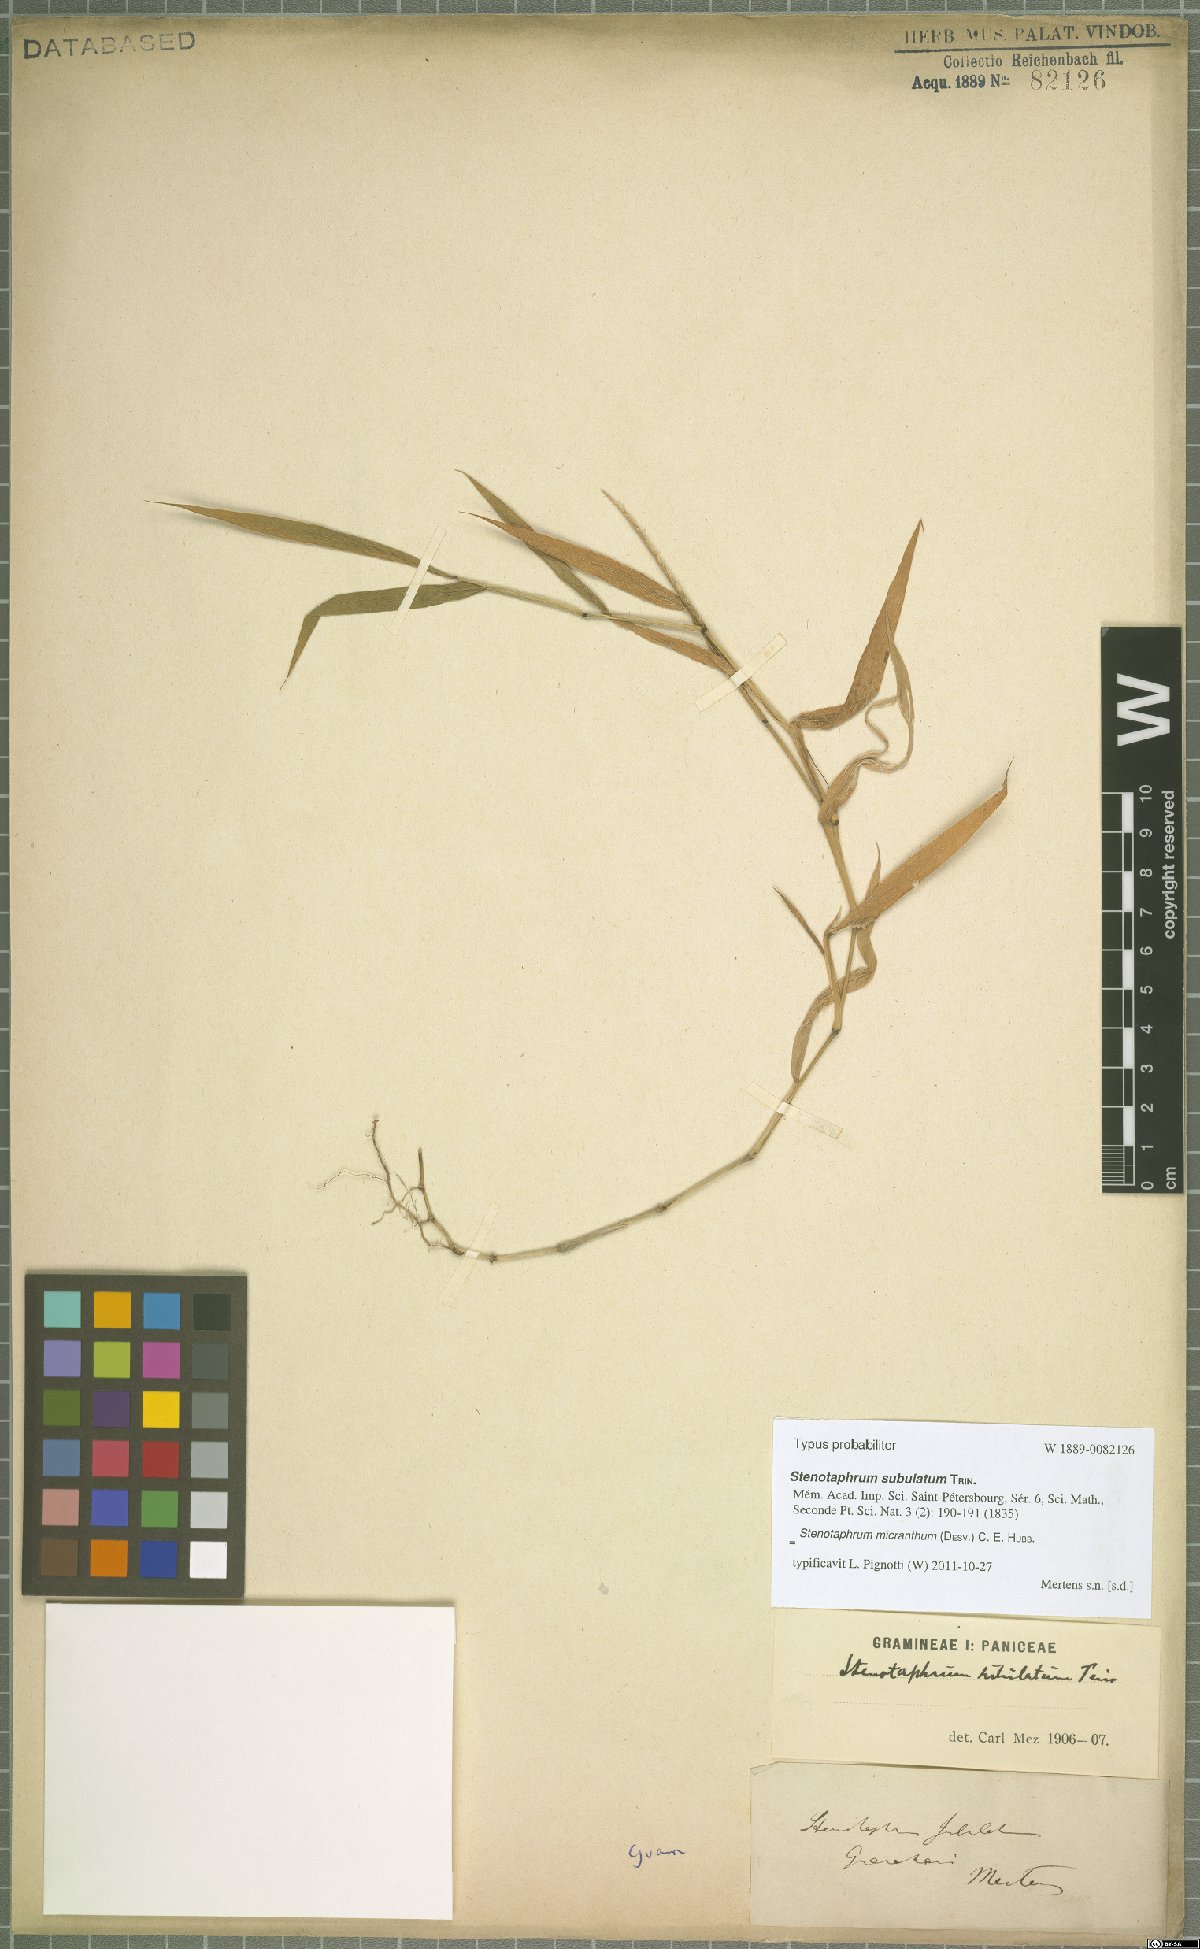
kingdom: Plantae
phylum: Tracheophyta
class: Liliopsida
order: Poales
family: Poaceae
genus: Stenotaphrum
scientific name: Stenotaphrum micranthum
